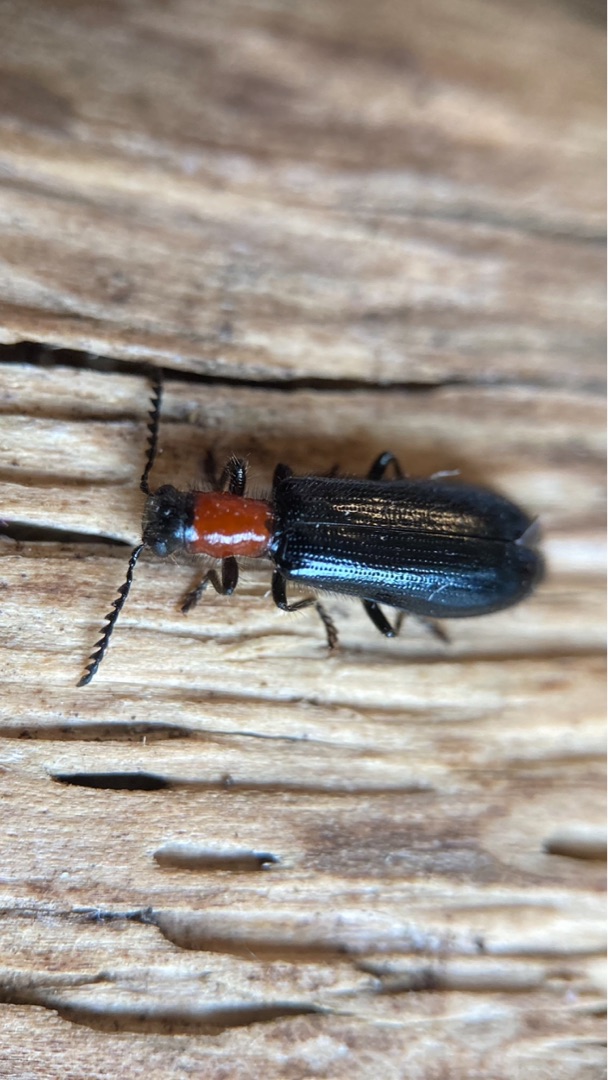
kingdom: Animalia
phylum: Arthropoda
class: Insecta
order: Coleoptera
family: Cleridae
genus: Tillus
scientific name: Tillus elongatus
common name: Blank myrebille
